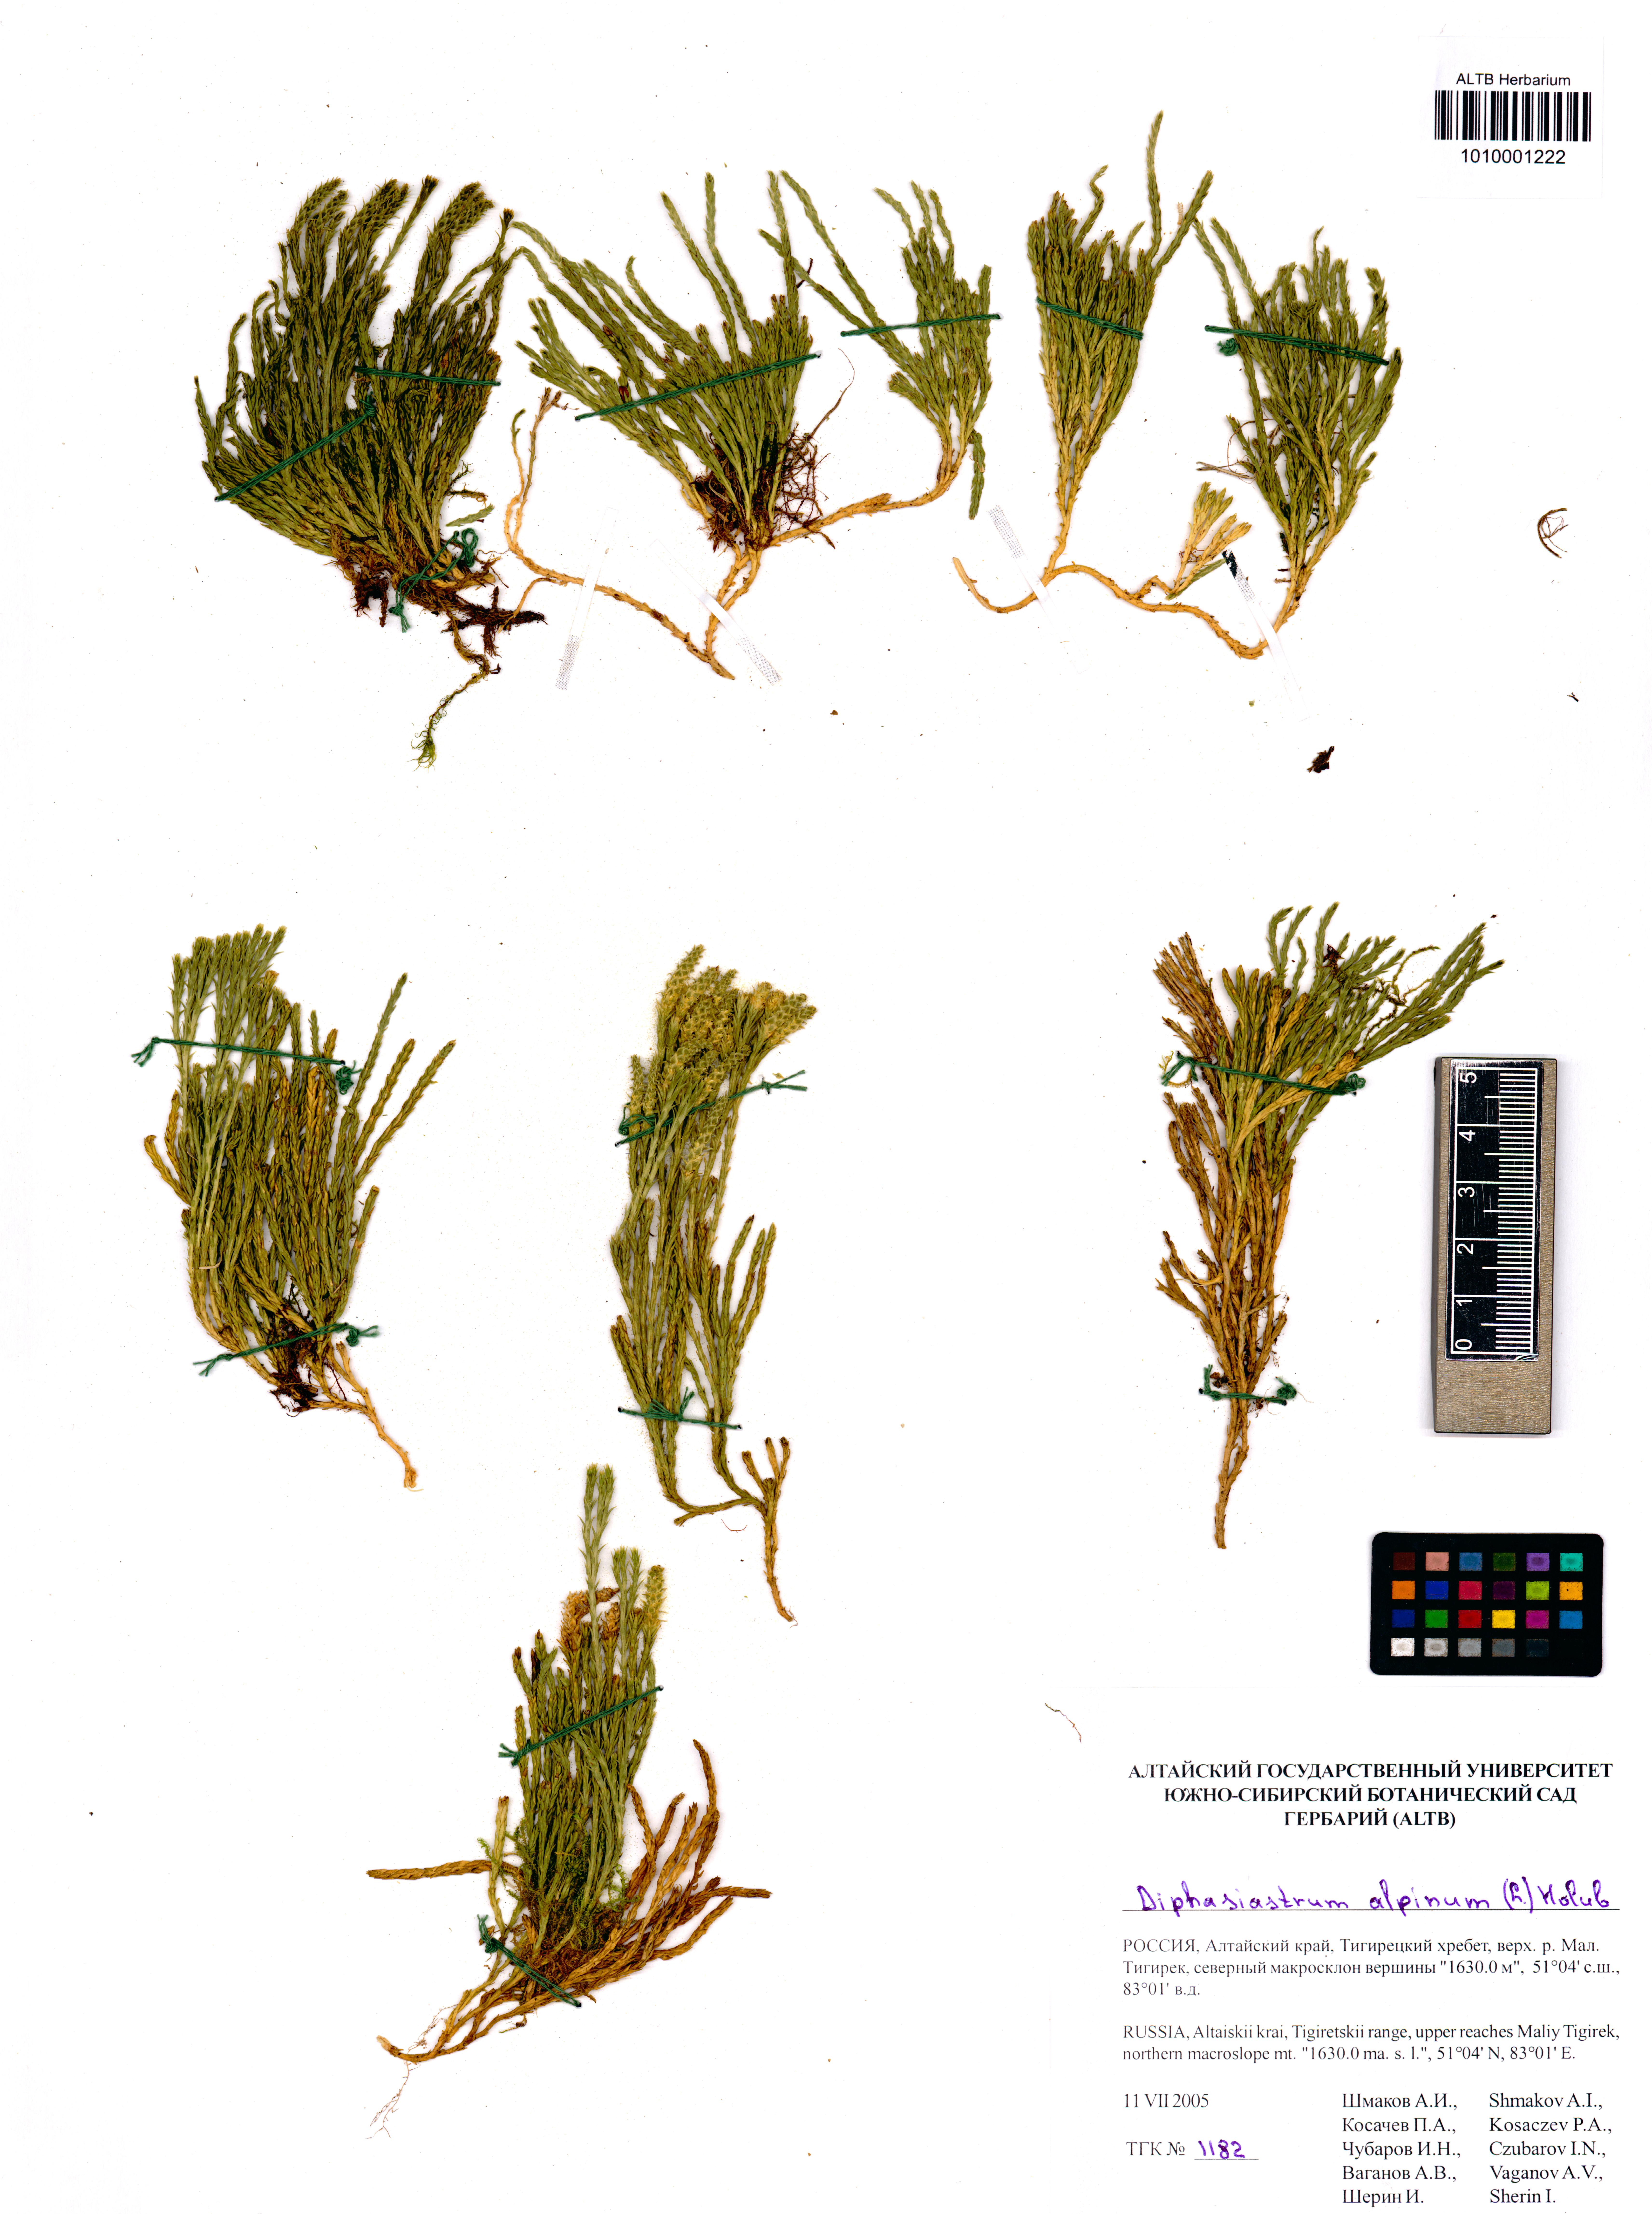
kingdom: Plantae
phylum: Tracheophyta
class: Lycopodiopsida
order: Lycopodiales
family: Lycopodiaceae
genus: Diphasiastrum
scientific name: Diphasiastrum alpinum
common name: Alpine clubmoss
